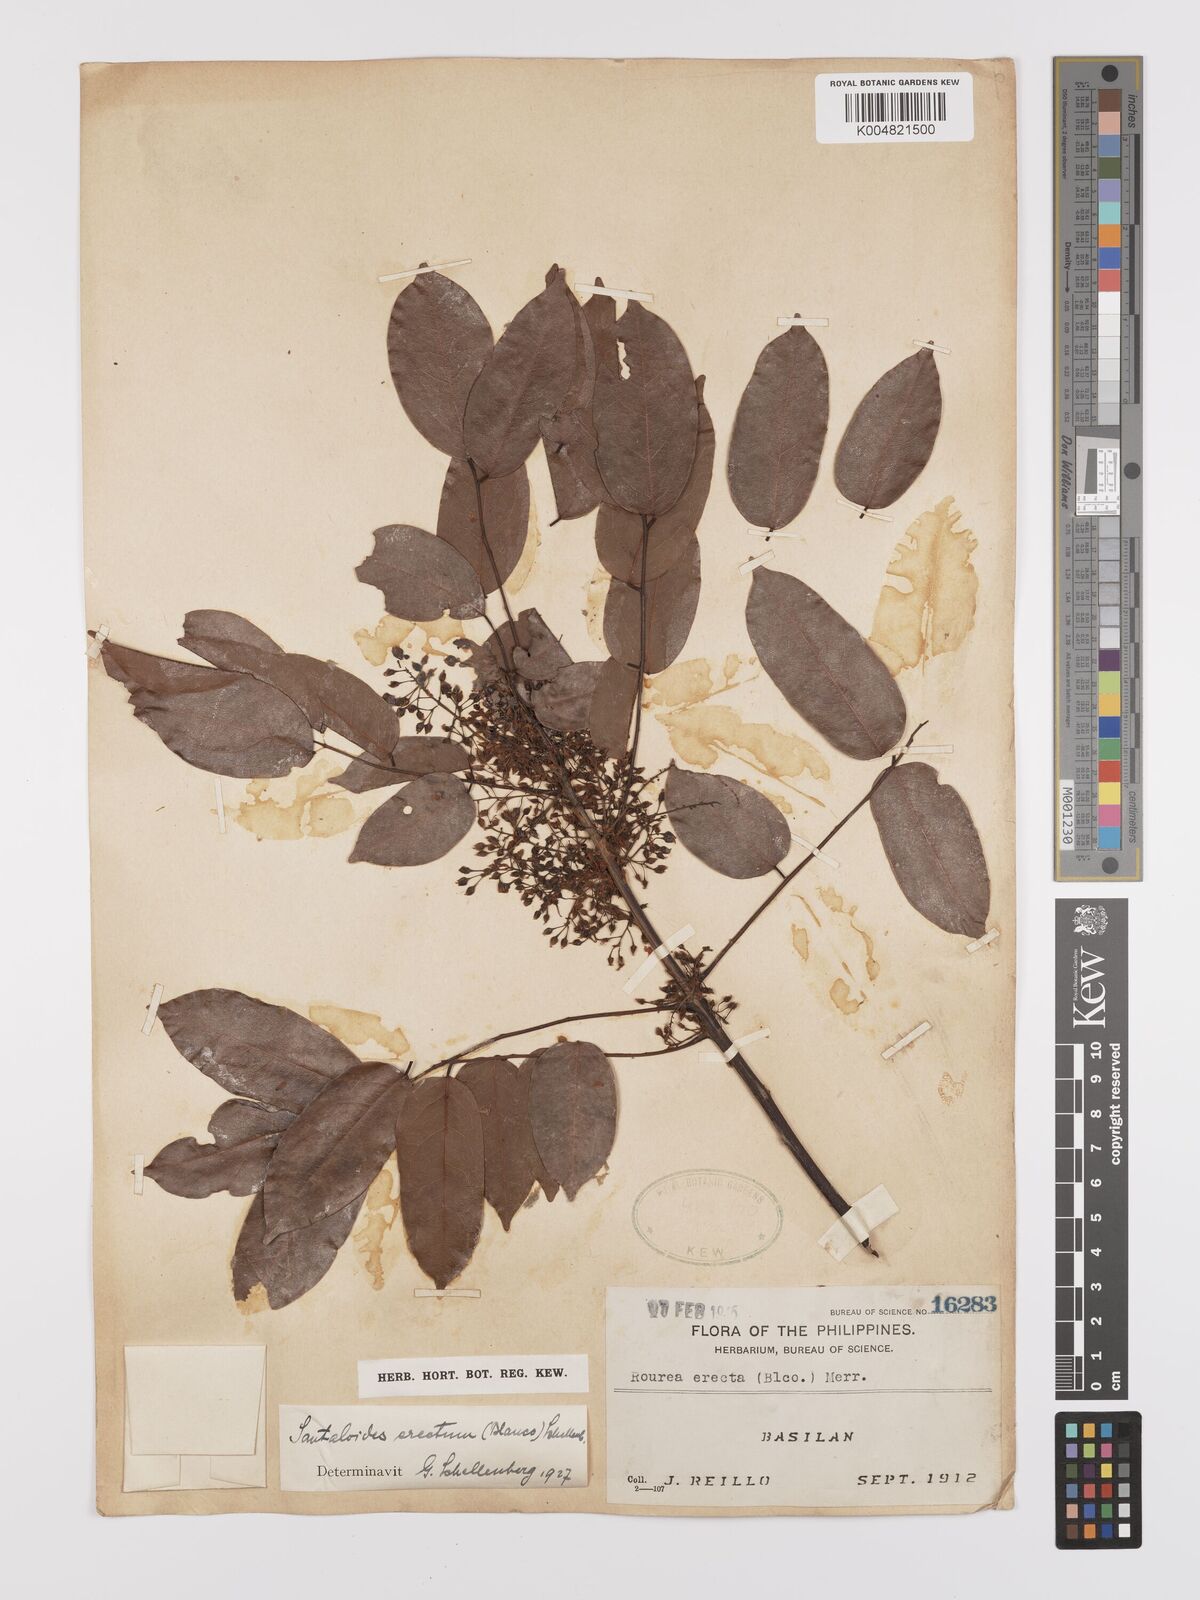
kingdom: Plantae
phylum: Tracheophyta
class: Magnoliopsida
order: Oxalidales
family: Connaraceae
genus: Rourea
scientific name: Rourea minor
